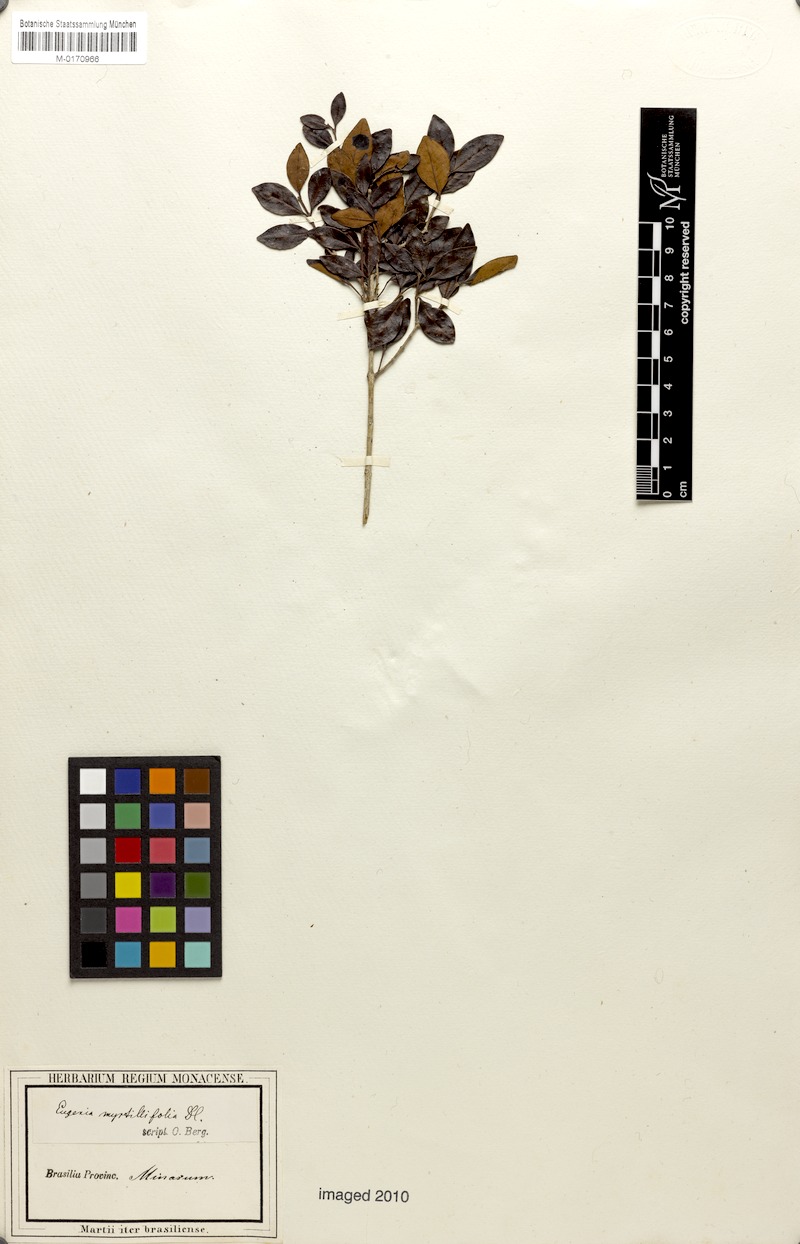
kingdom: Plantae
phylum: Tracheophyta
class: Magnoliopsida
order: Myrtales
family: Myrtaceae
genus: Eugenia
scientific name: Eugenia punicifolia
